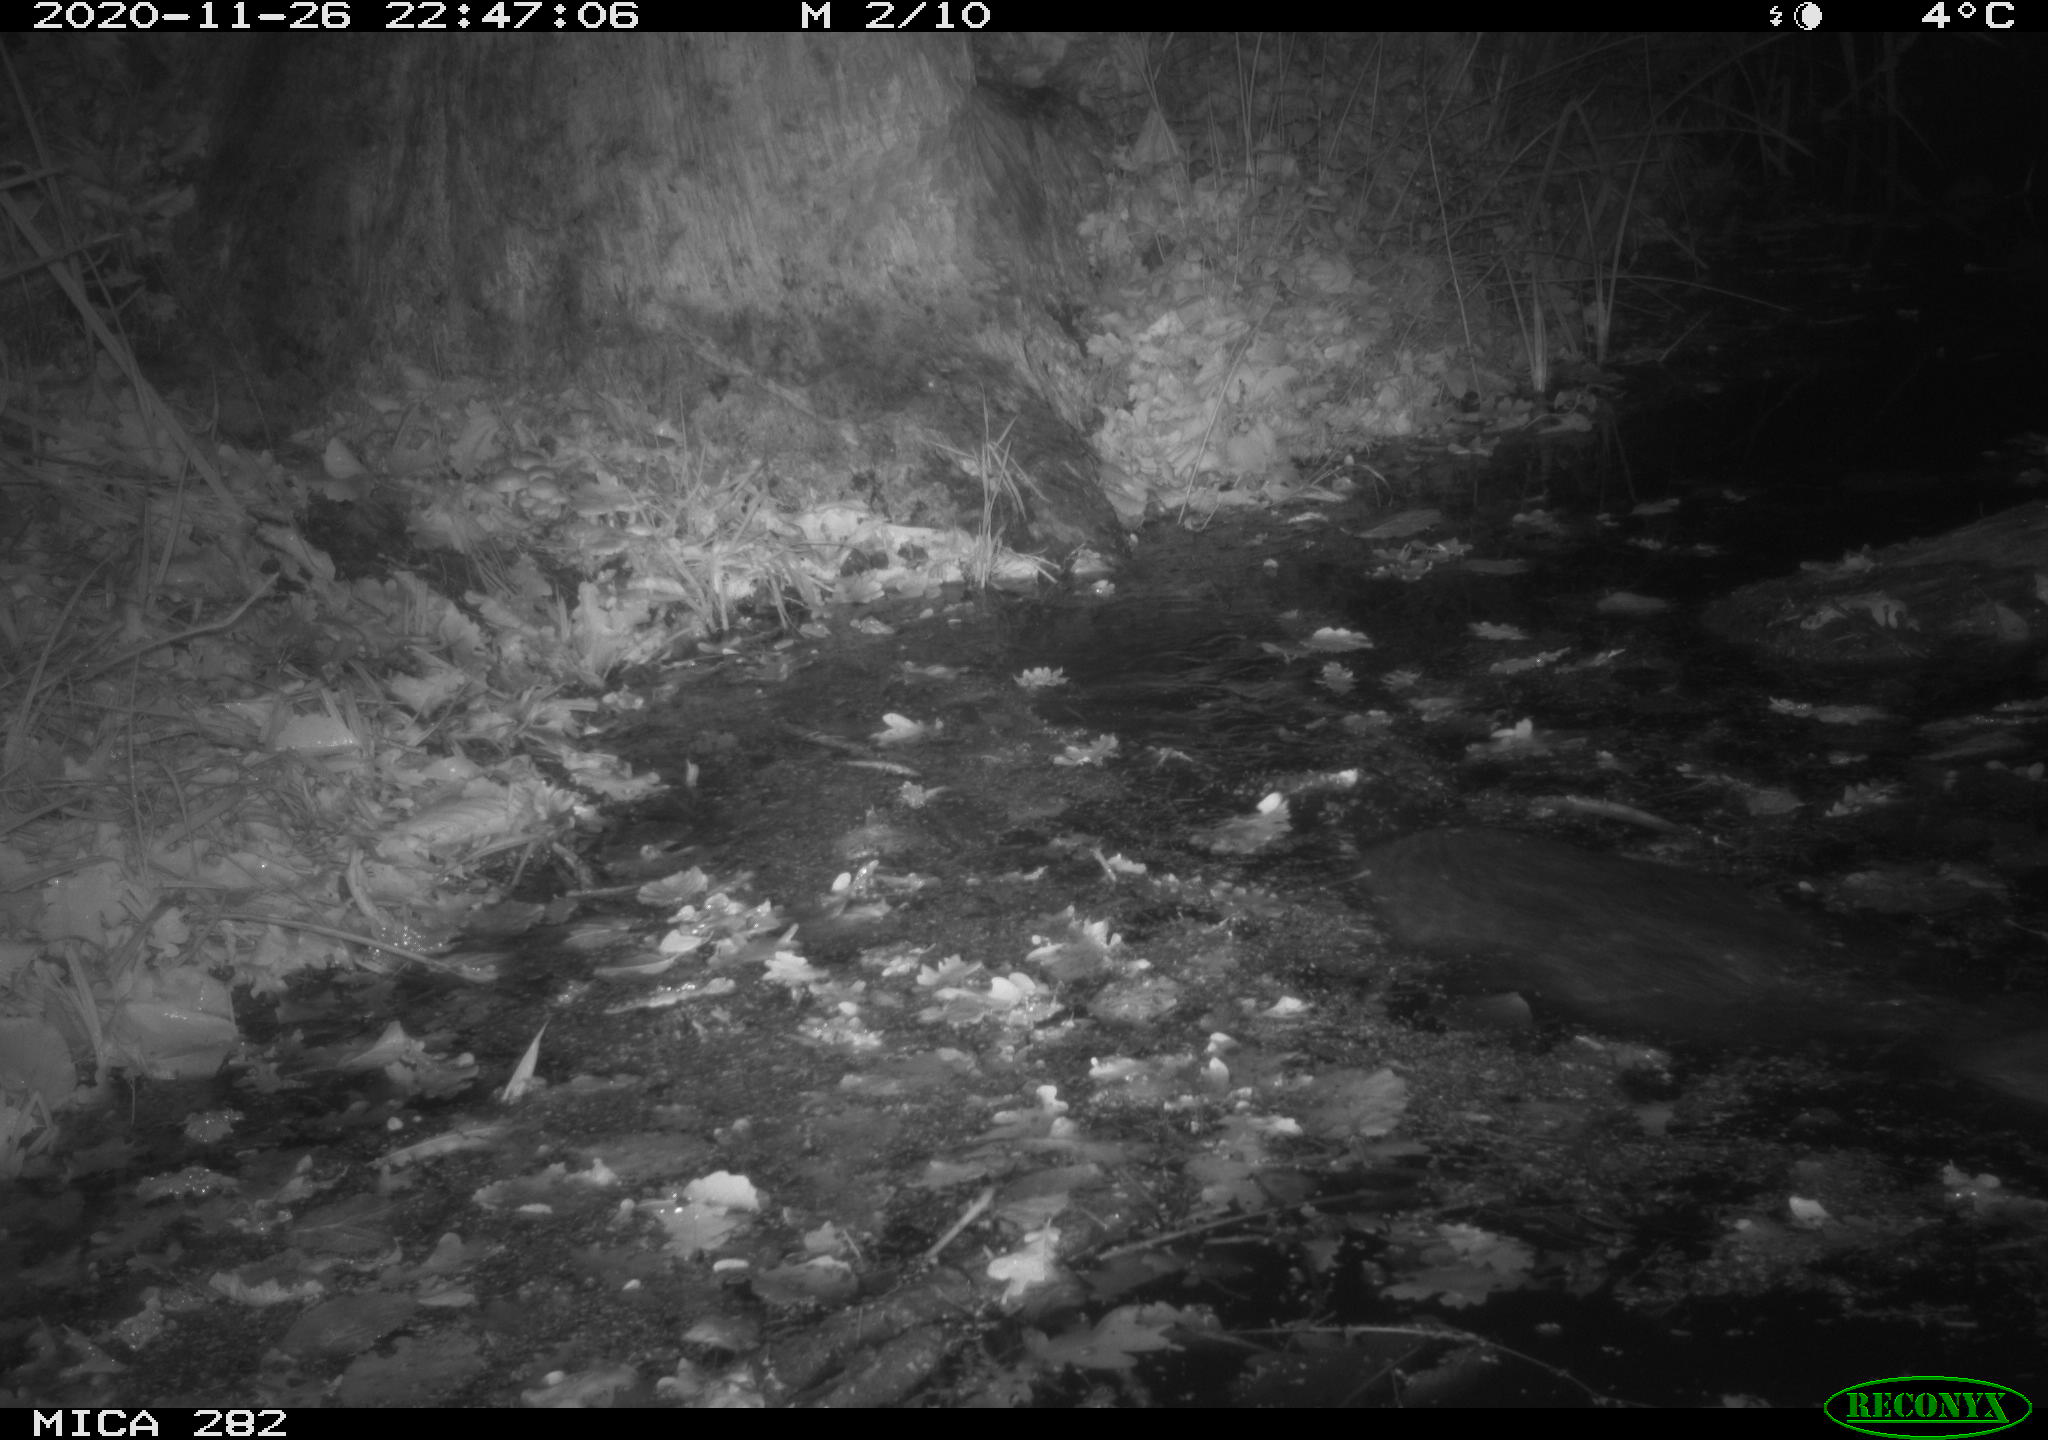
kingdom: Animalia
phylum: Chordata
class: Mammalia
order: Rodentia
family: Castoridae
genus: Castor
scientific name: Castor fiber
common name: Eurasian beaver
